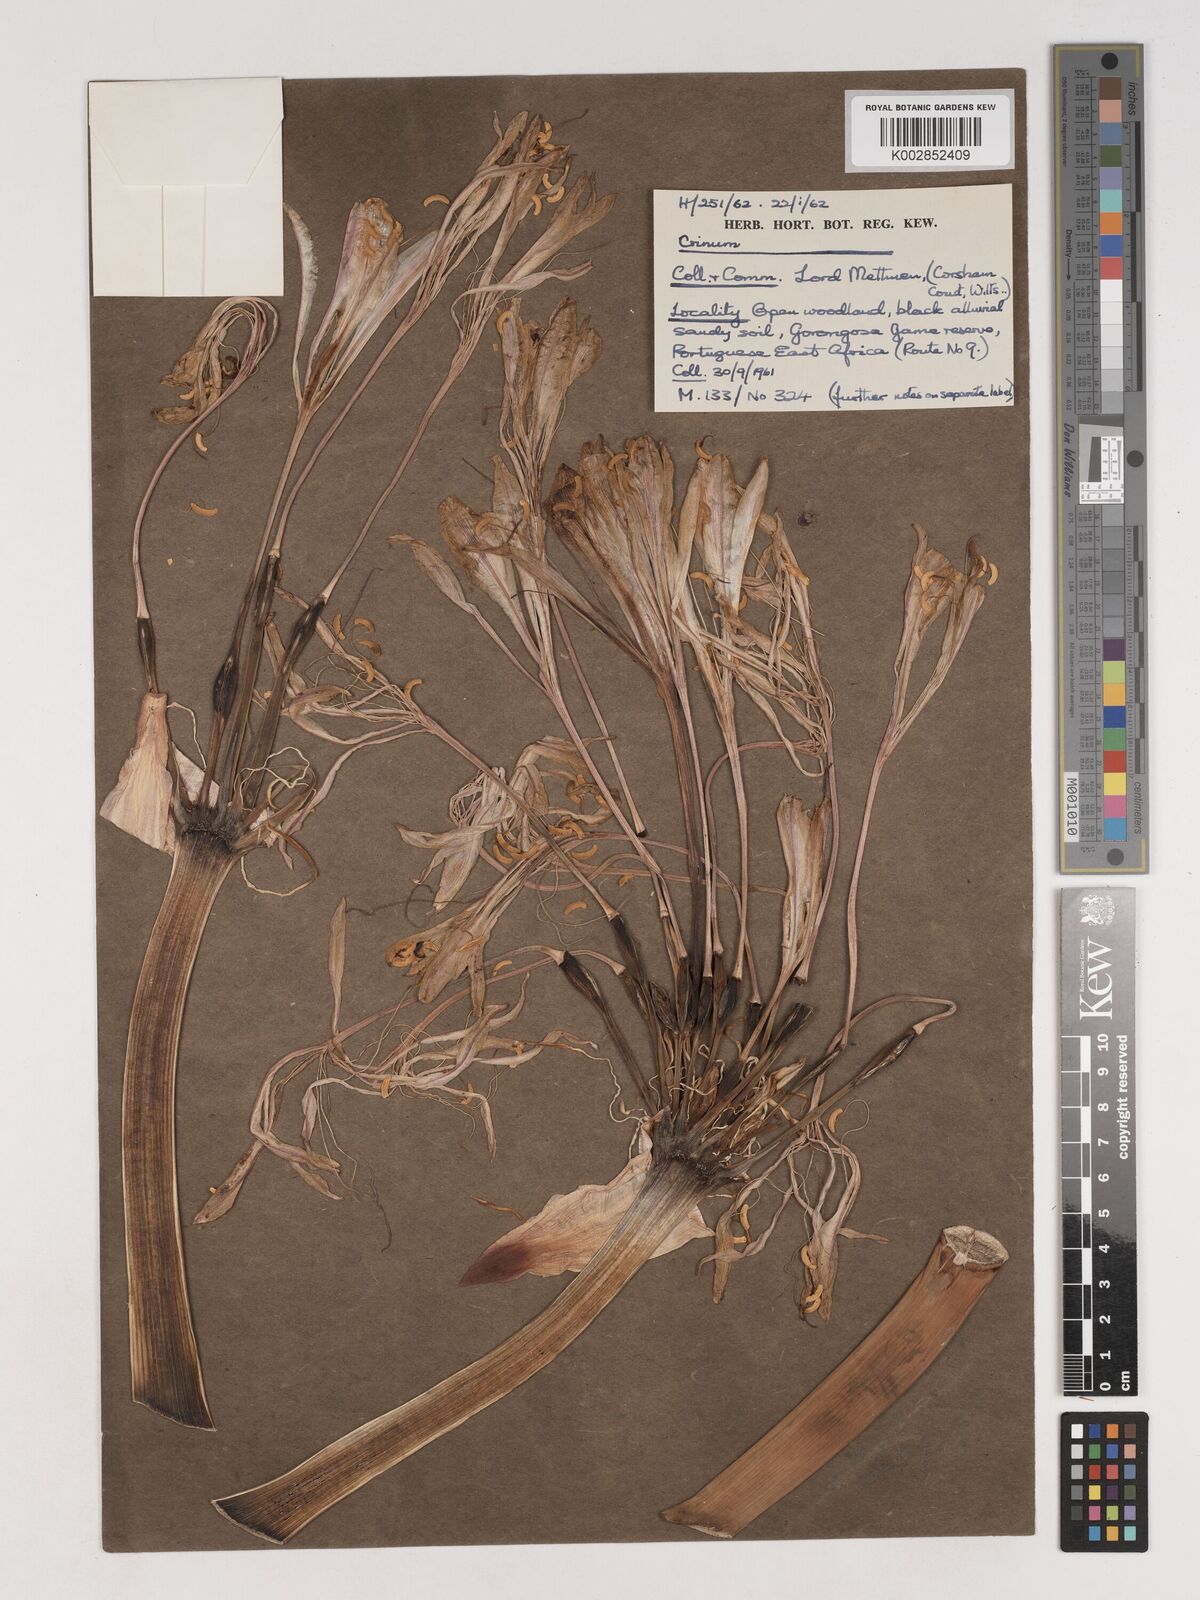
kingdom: Plantae
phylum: Tracheophyta
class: Liliopsida
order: Asparagales
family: Amaryllidaceae
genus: Crinum
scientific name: Crinum stuhlmannii
